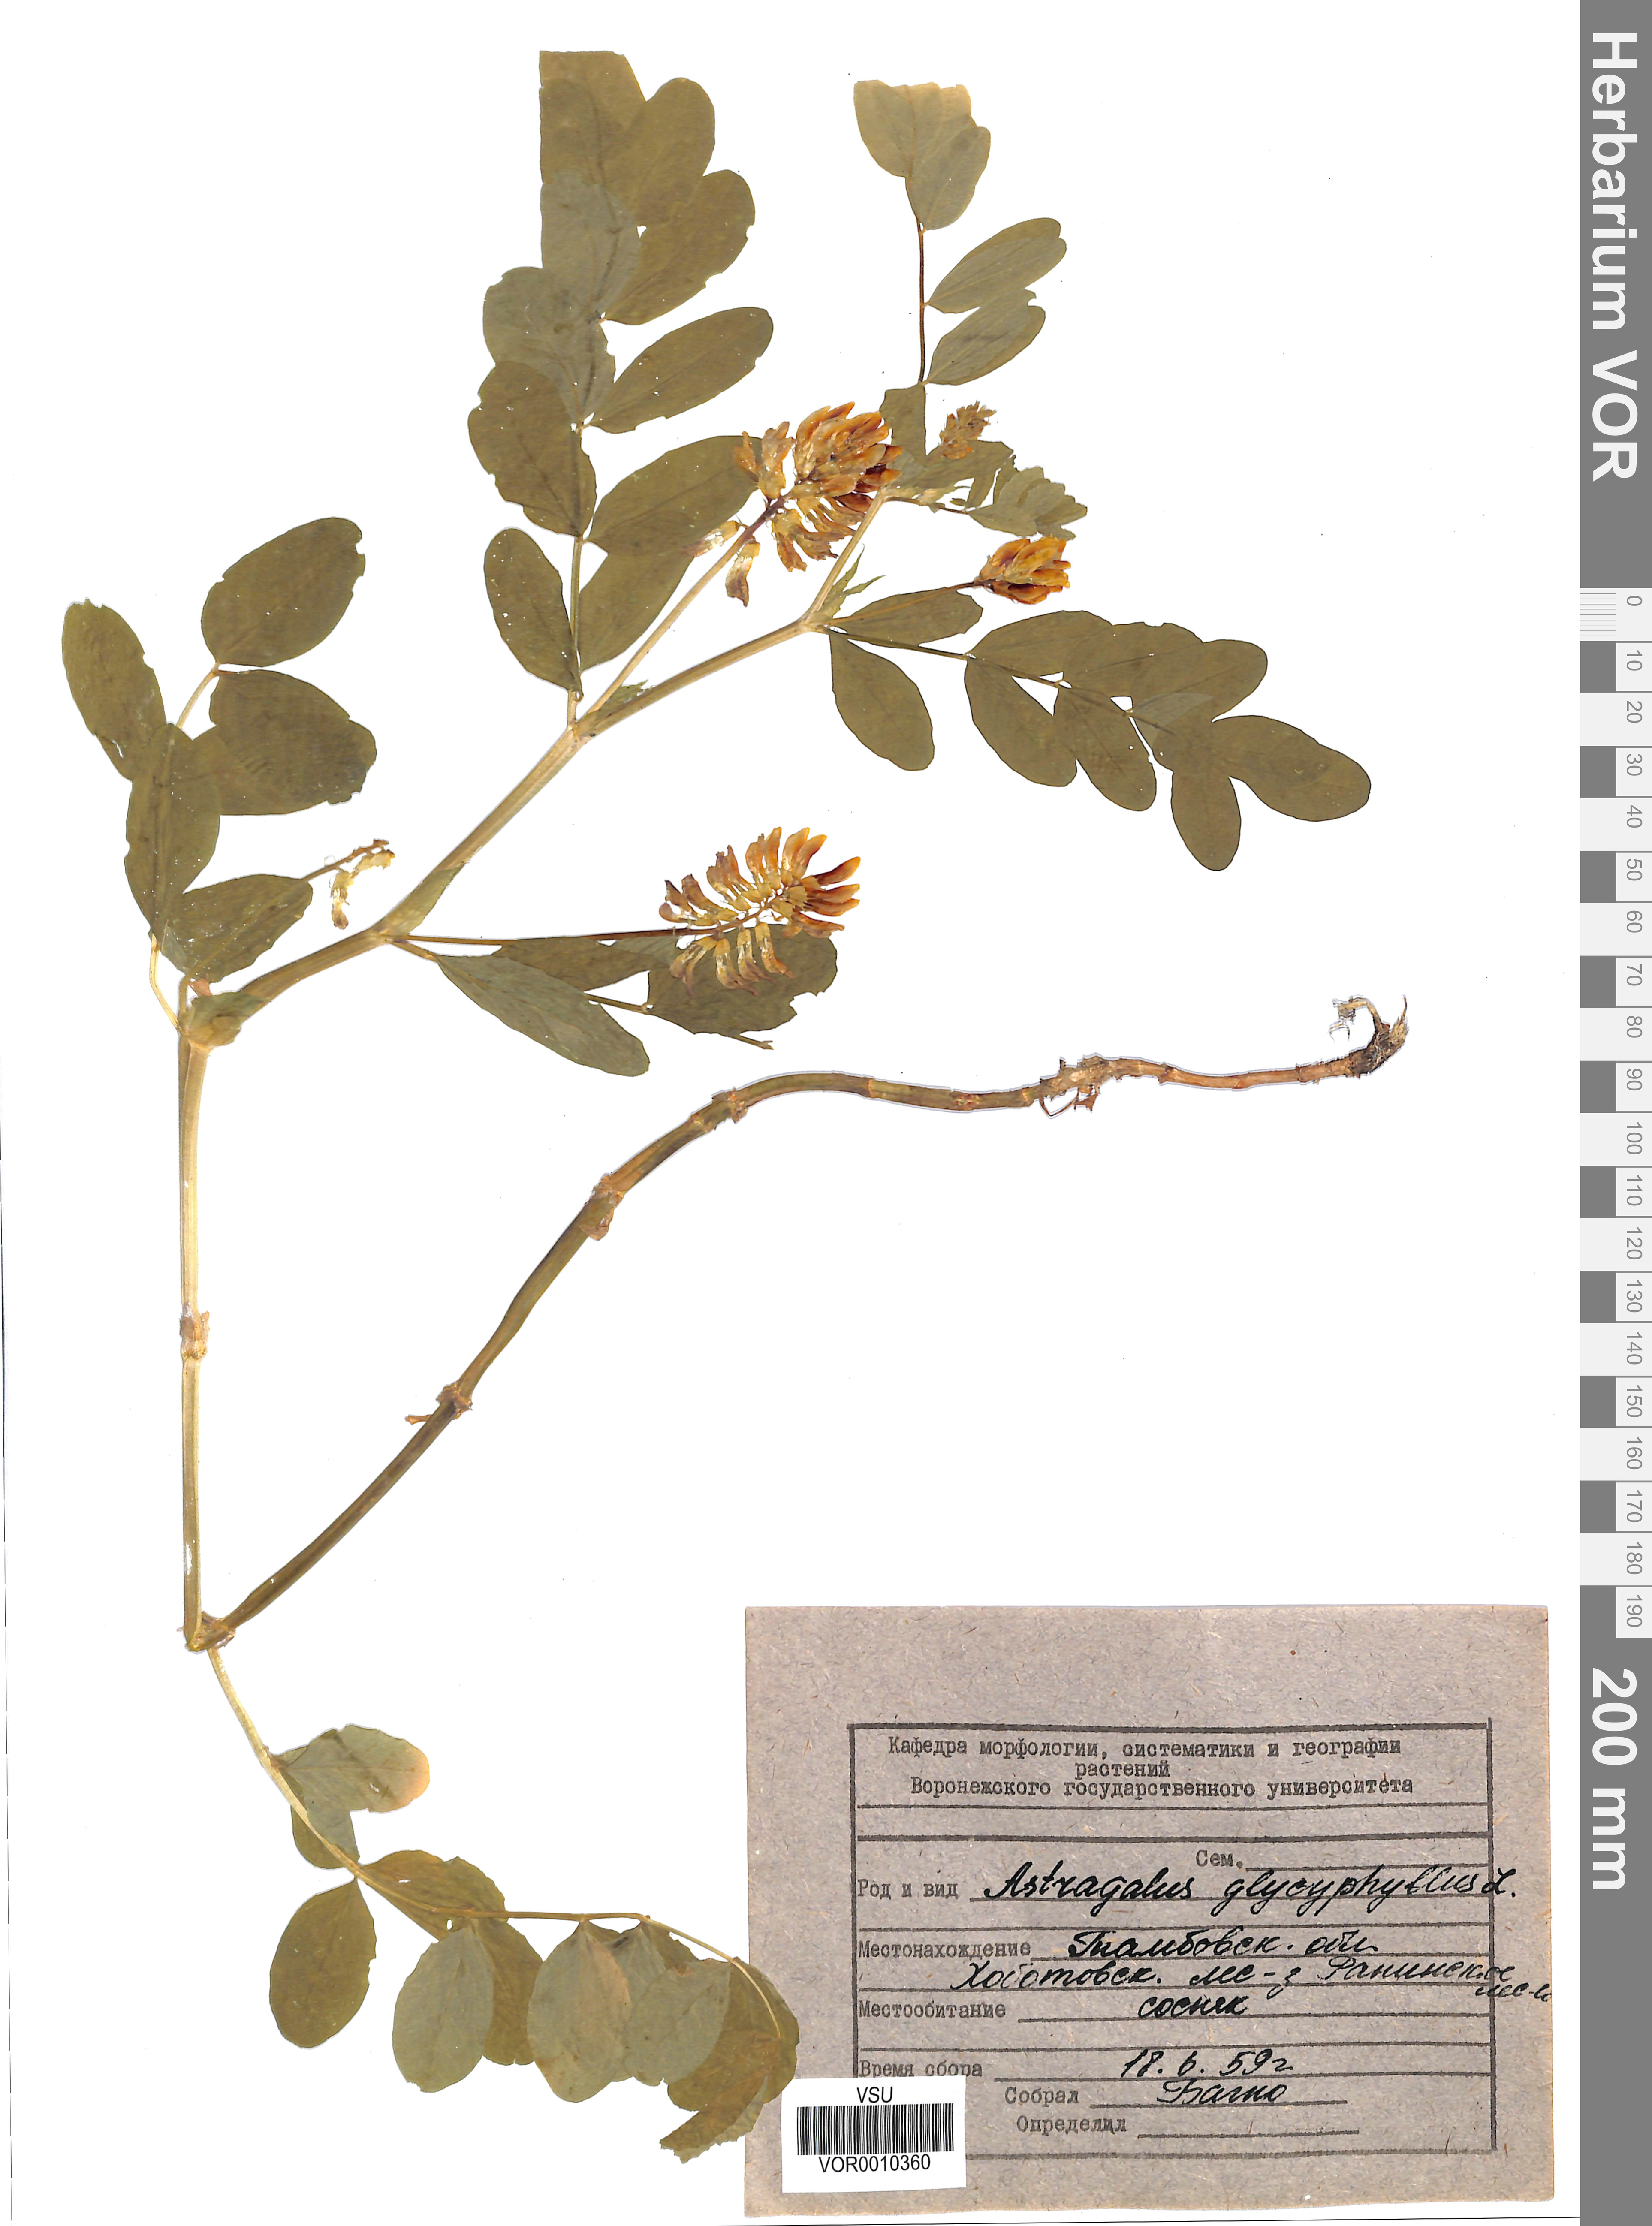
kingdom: Plantae
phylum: Tracheophyta
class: Magnoliopsida
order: Fabales
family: Fabaceae
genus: Astragalus
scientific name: Astragalus glycyphyllos
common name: Wild liquorice
